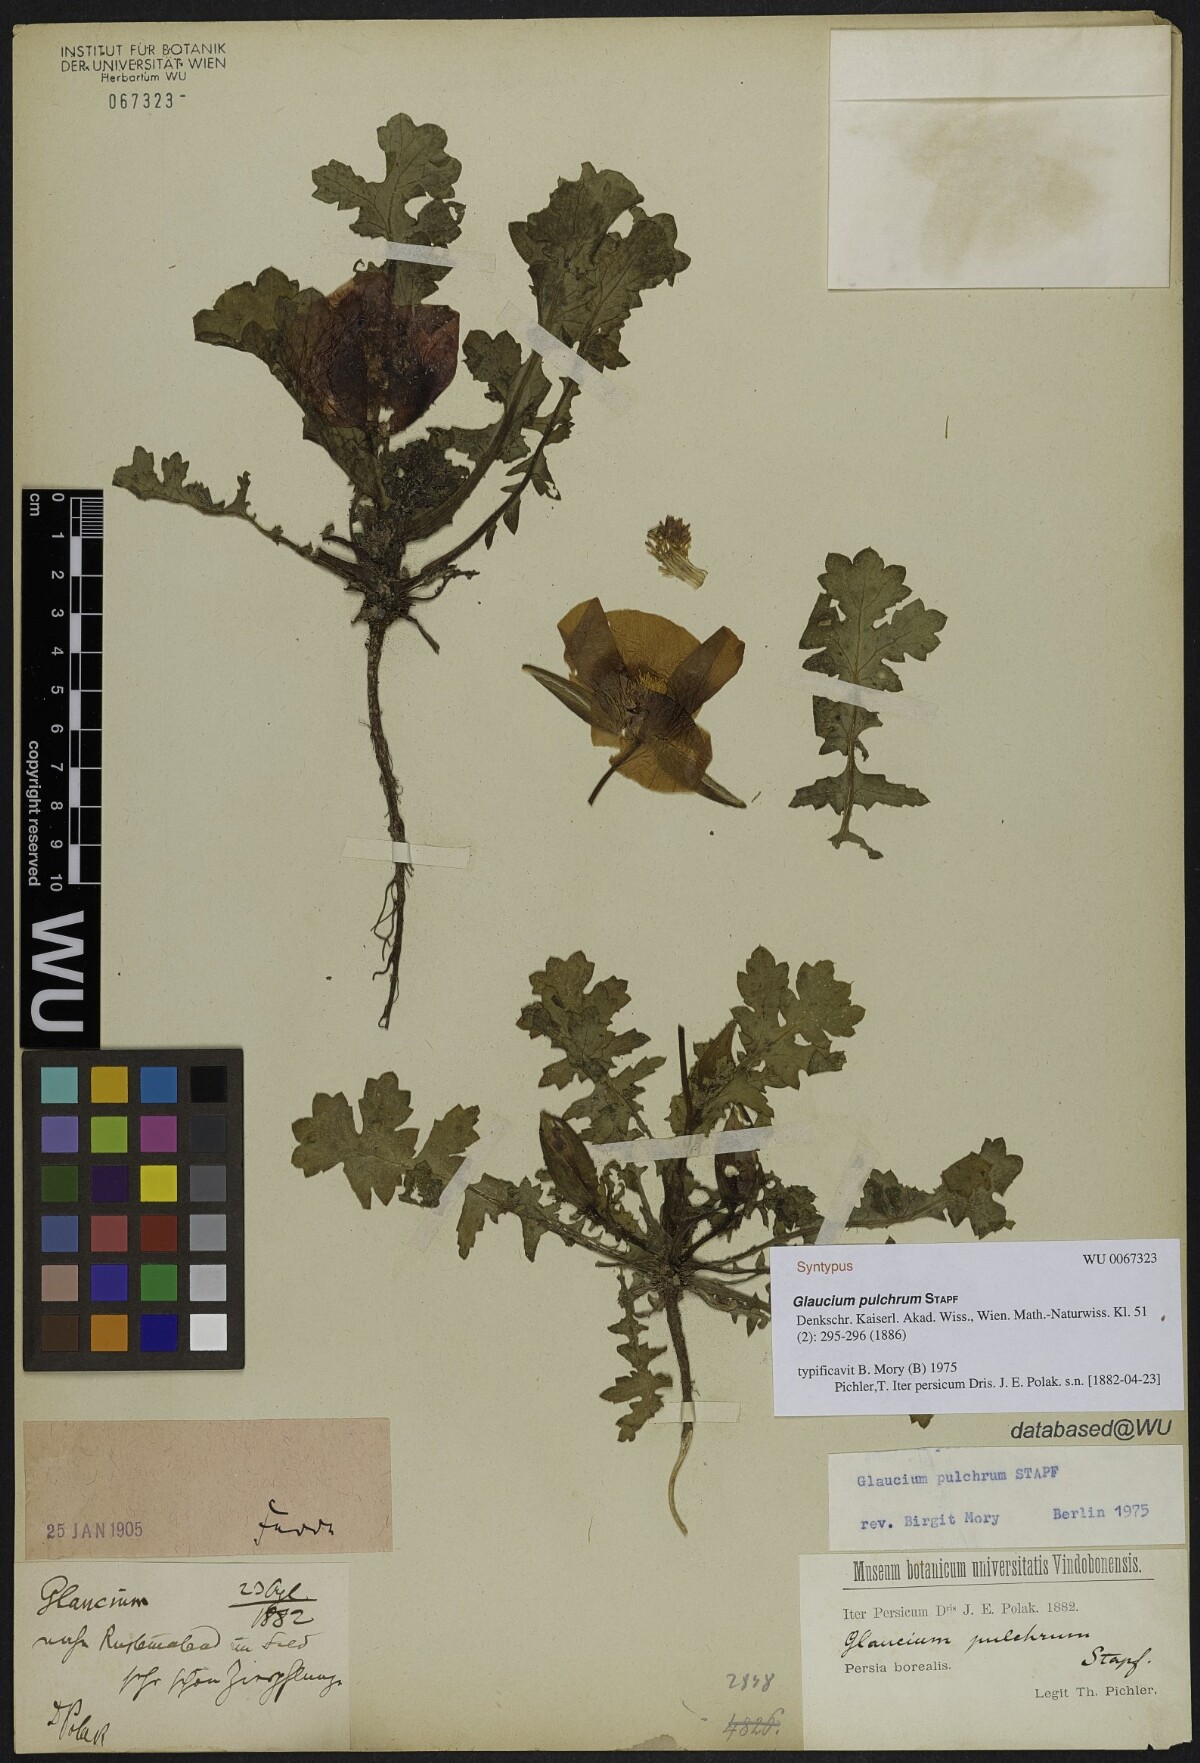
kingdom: Plantae
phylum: Tracheophyta
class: Magnoliopsida
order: Ranunculales
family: Papaveraceae
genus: Glaucium
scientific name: Glaucium oxylobum
